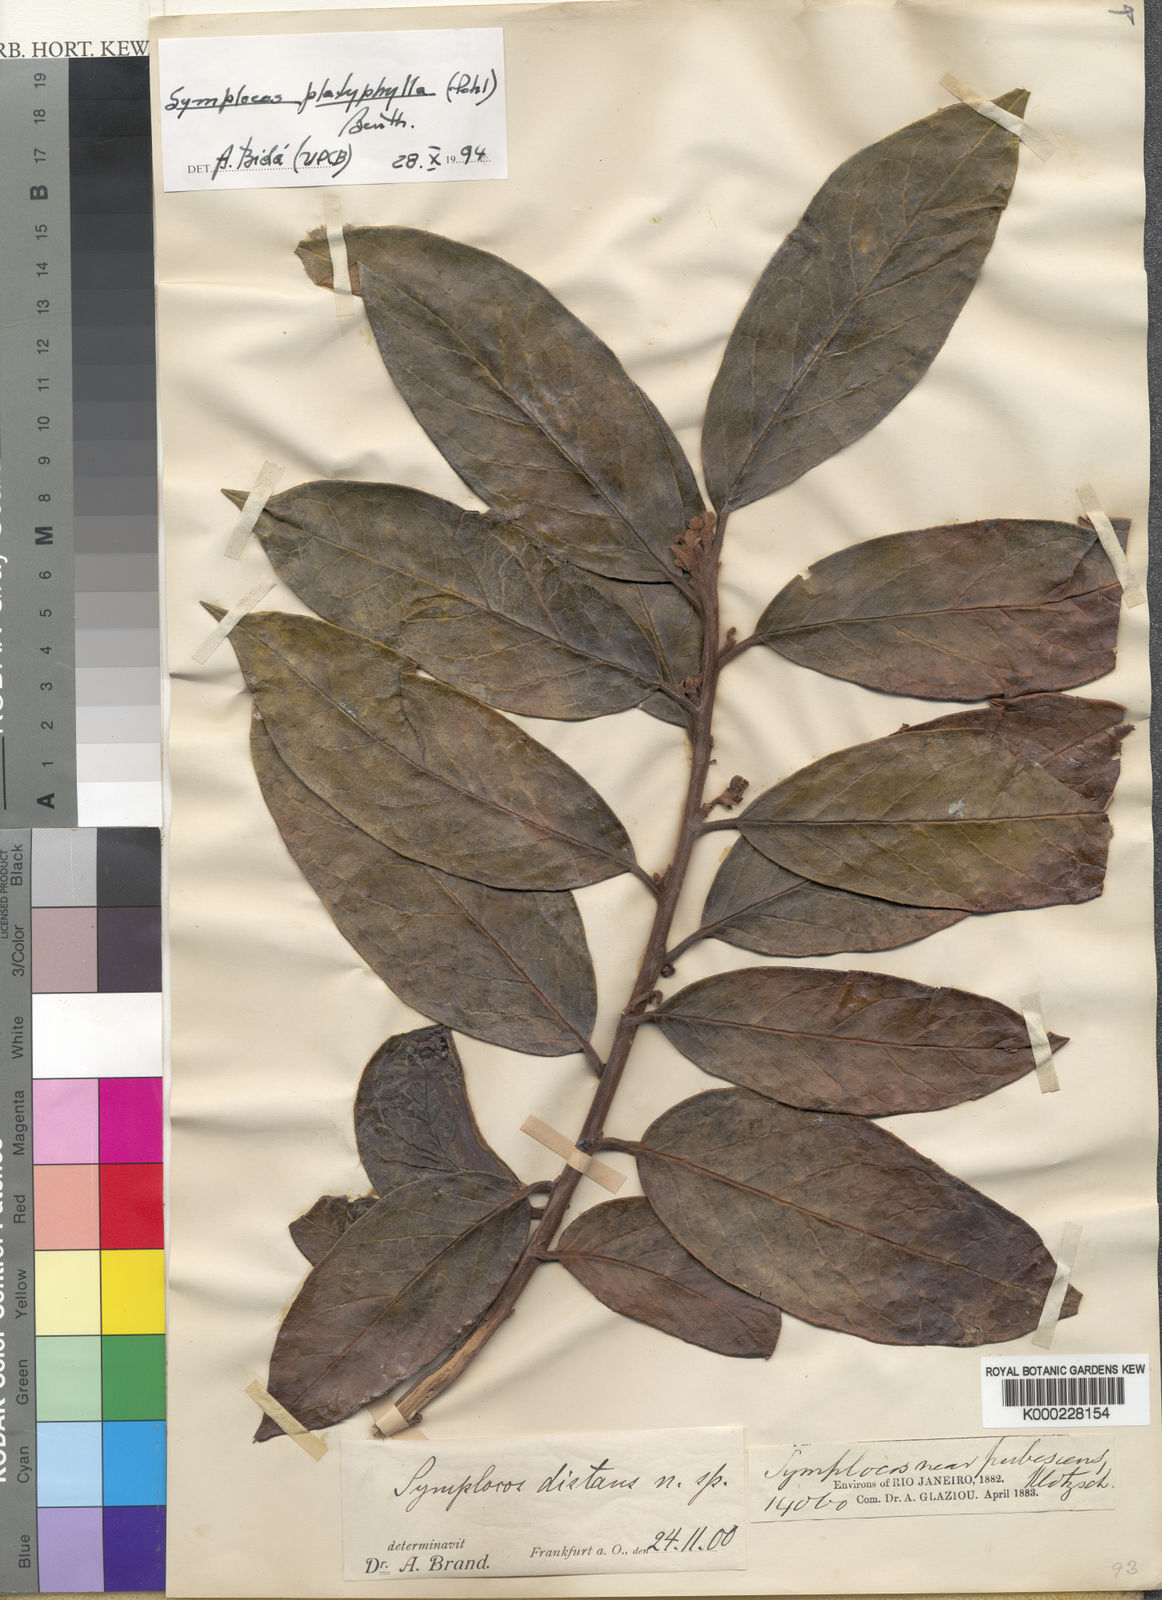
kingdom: Plantae
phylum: Tracheophyta
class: Magnoliopsida
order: Ericales
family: Symplocaceae
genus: Symplocos
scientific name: Symplocos platyphylla
